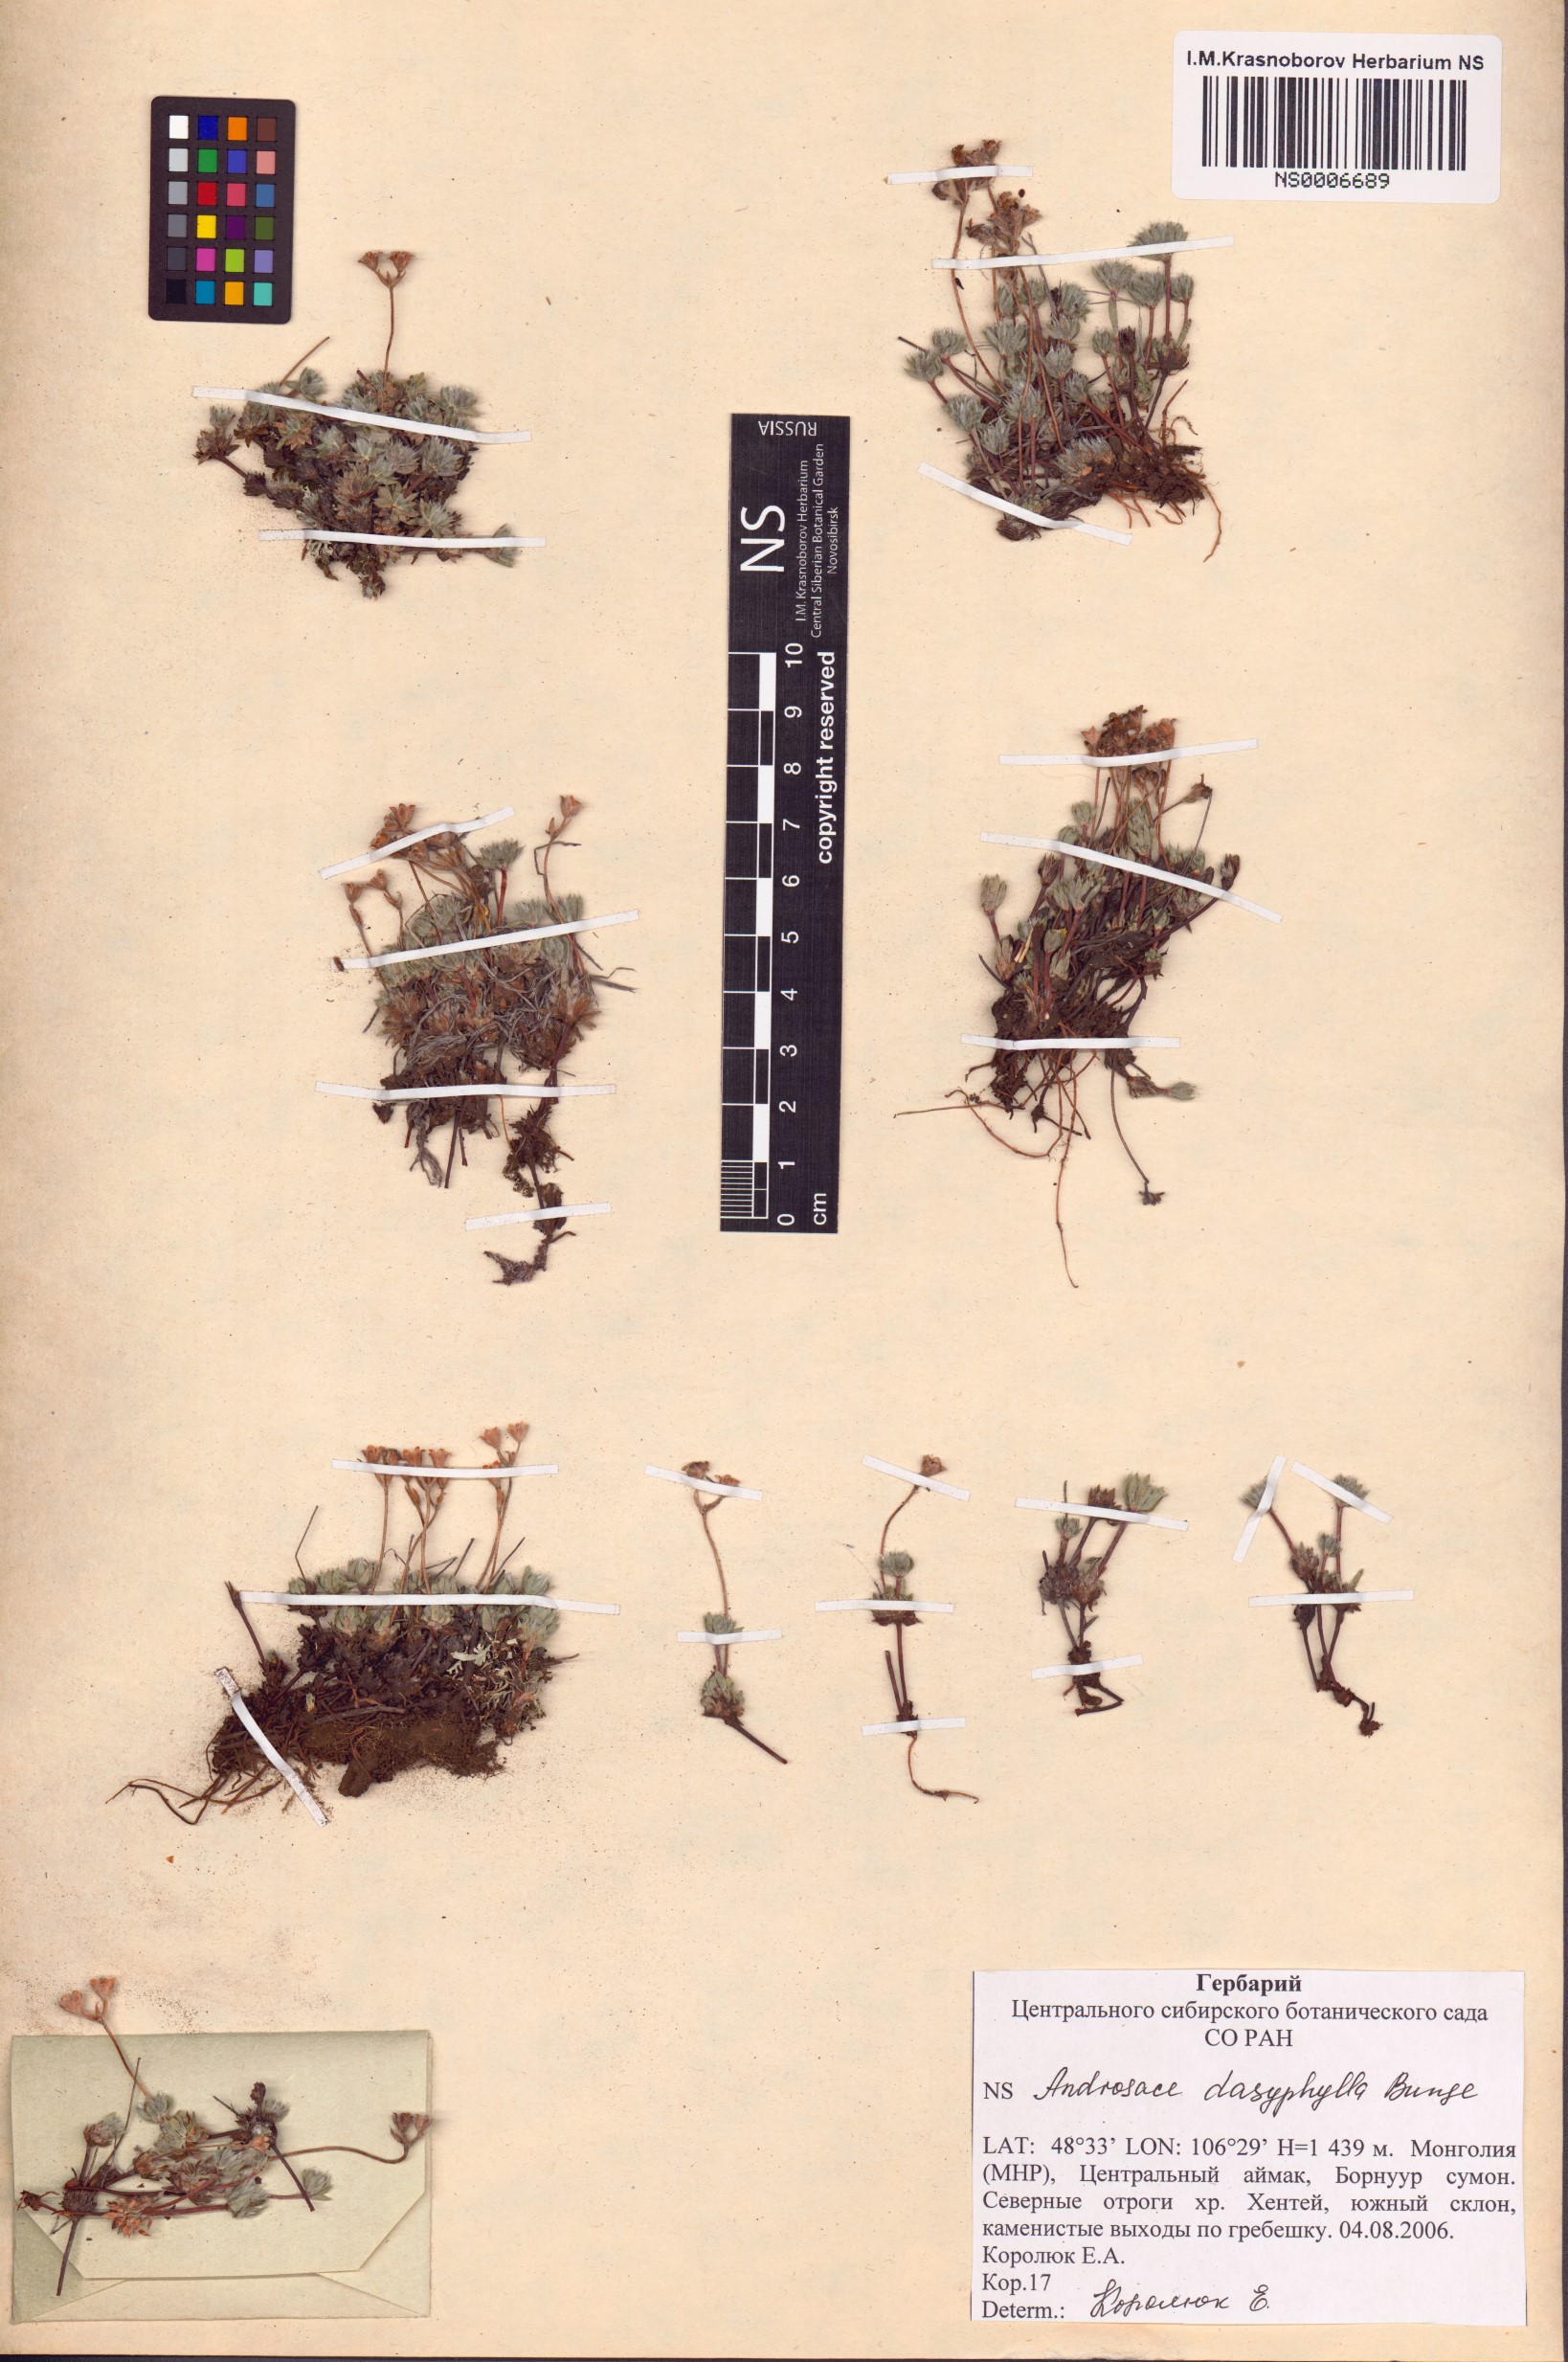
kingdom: Plantae
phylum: Tracheophyta
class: Magnoliopsida
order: Ericales
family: Primulaceae
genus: Androsace
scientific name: Androsace dasyphylla
